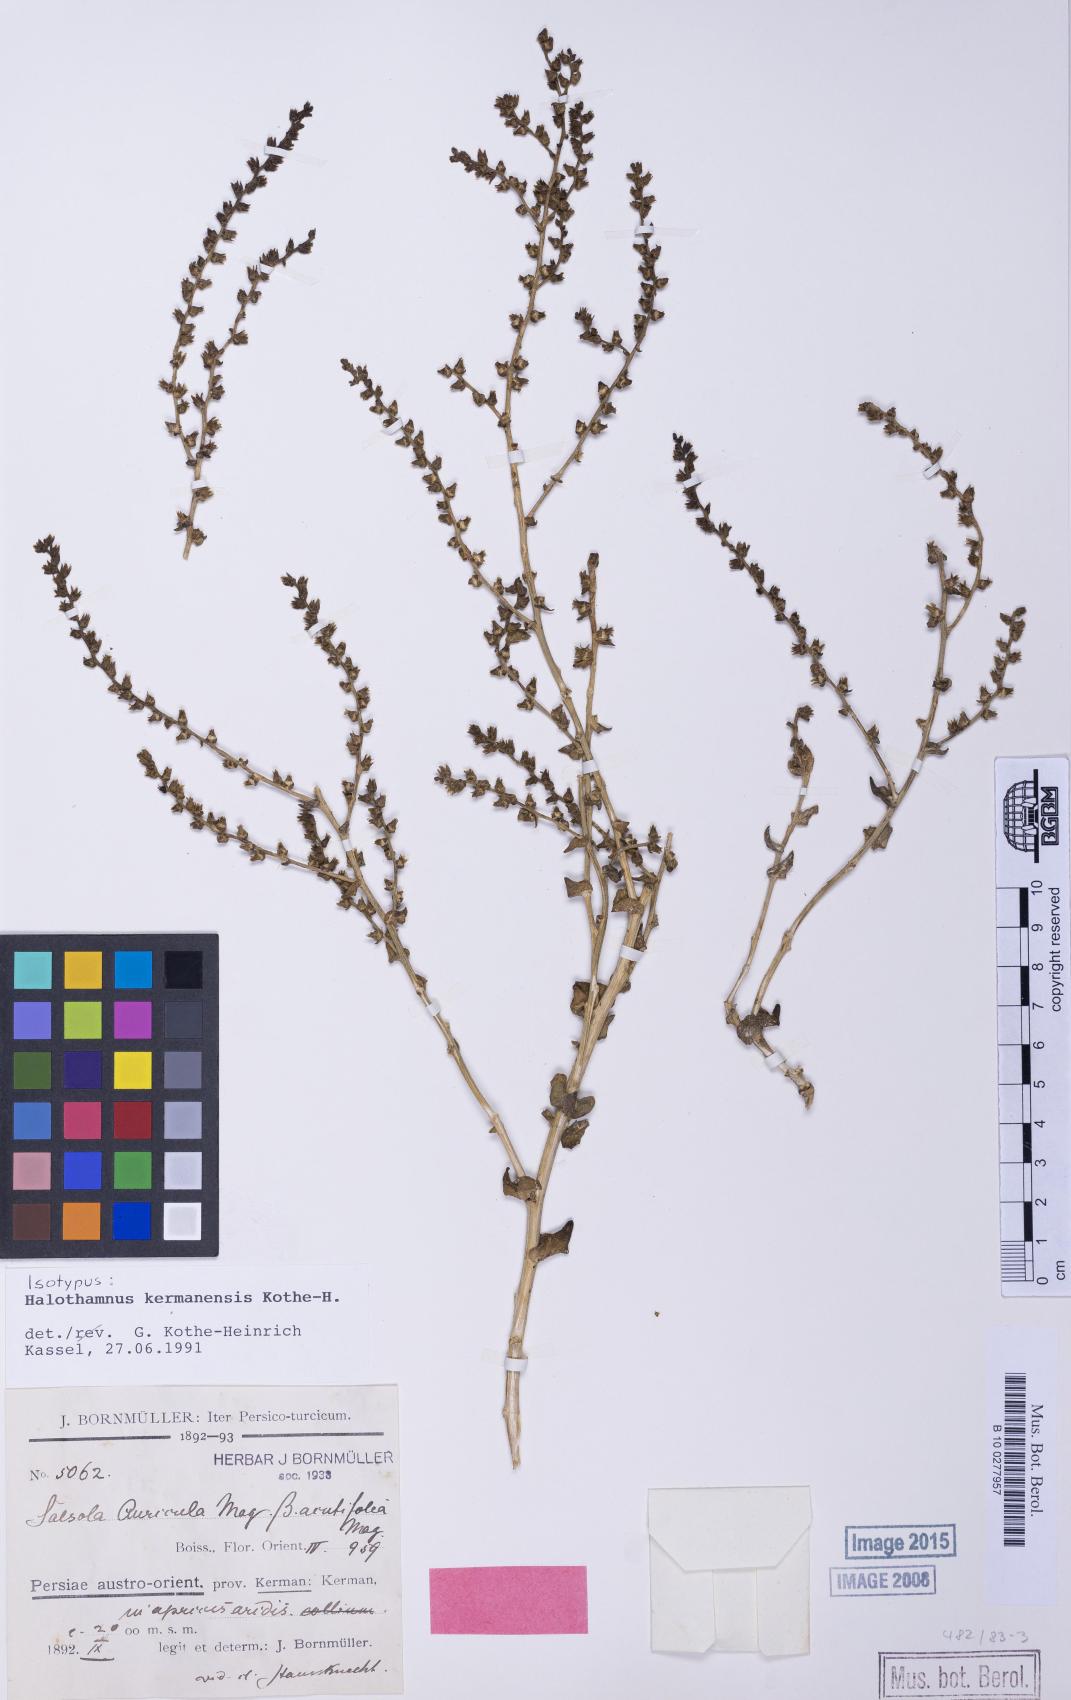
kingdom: Plantae
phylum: Tracheophyta
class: Magnoliopsida
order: Caryophyllales
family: Amaranthaceae
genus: Halothamnus
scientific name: Halothamnus kermanensis
